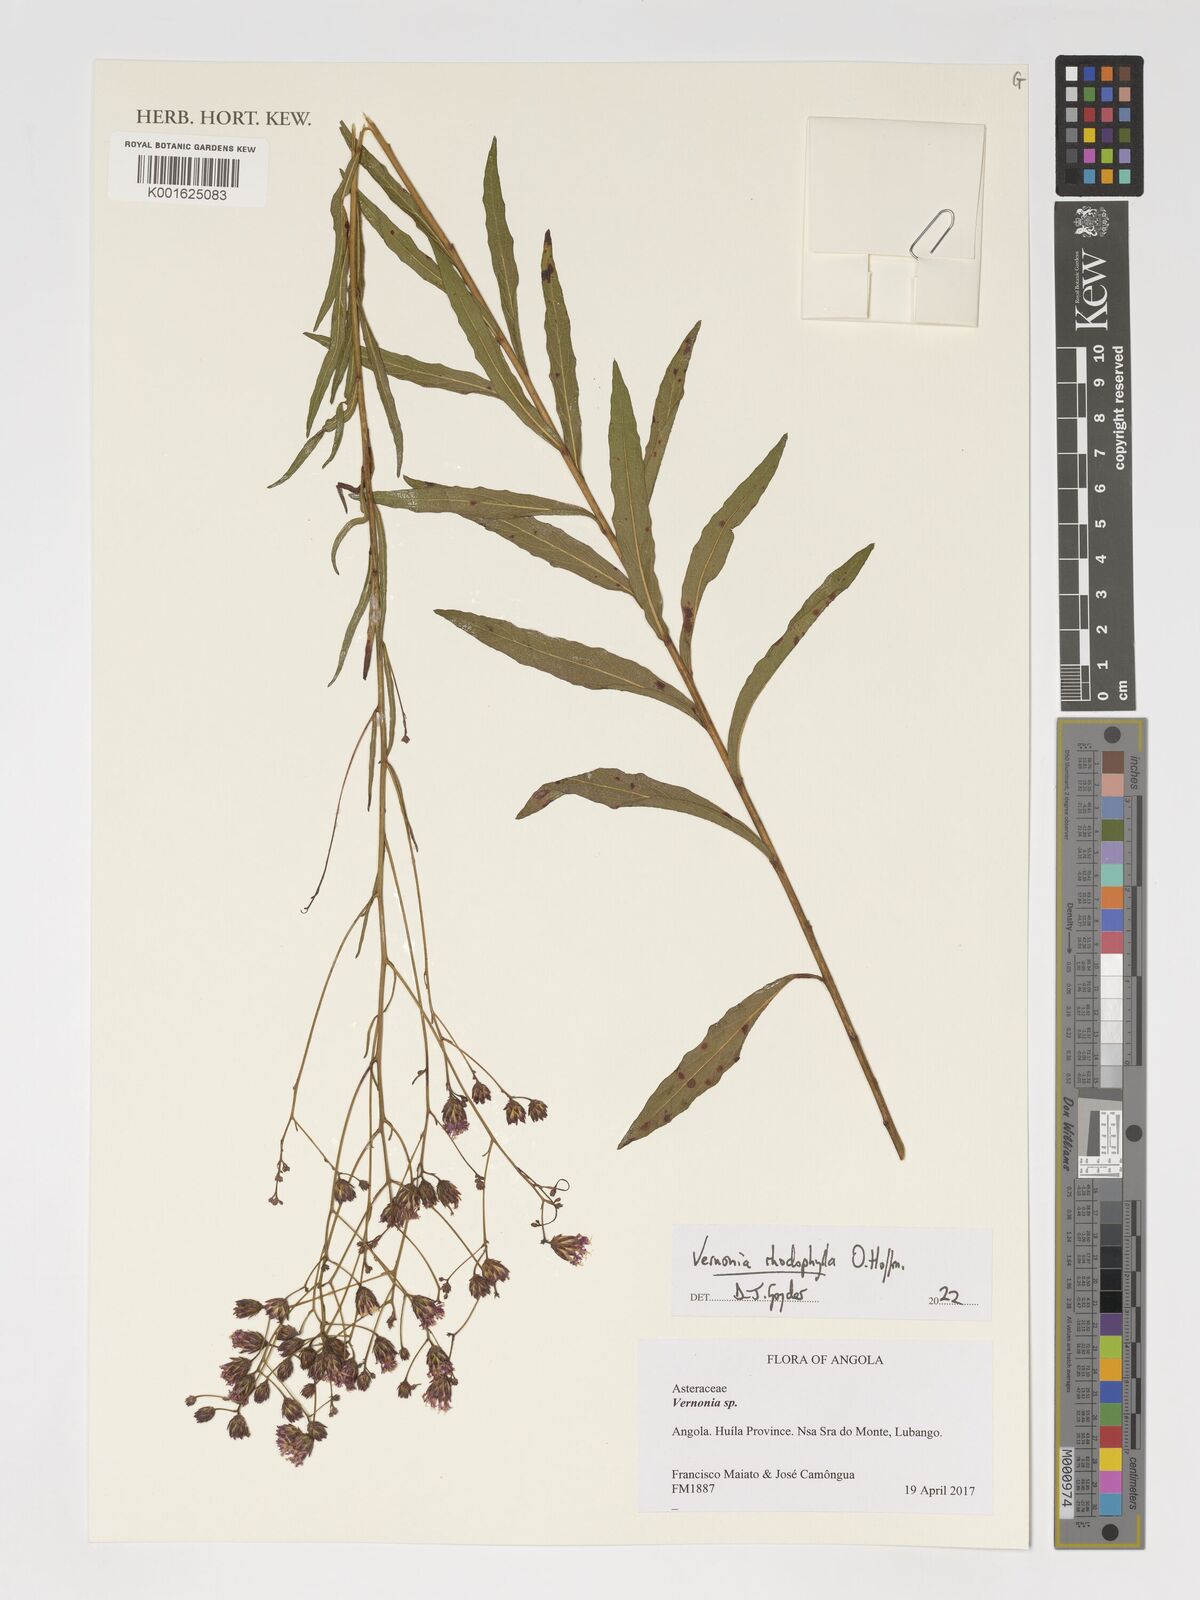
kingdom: Plantae
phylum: Tracheophyta
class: Magnoliopsida
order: Asterales
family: Asteraceae
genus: Vernonia
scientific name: Vernonia rhodophylla
